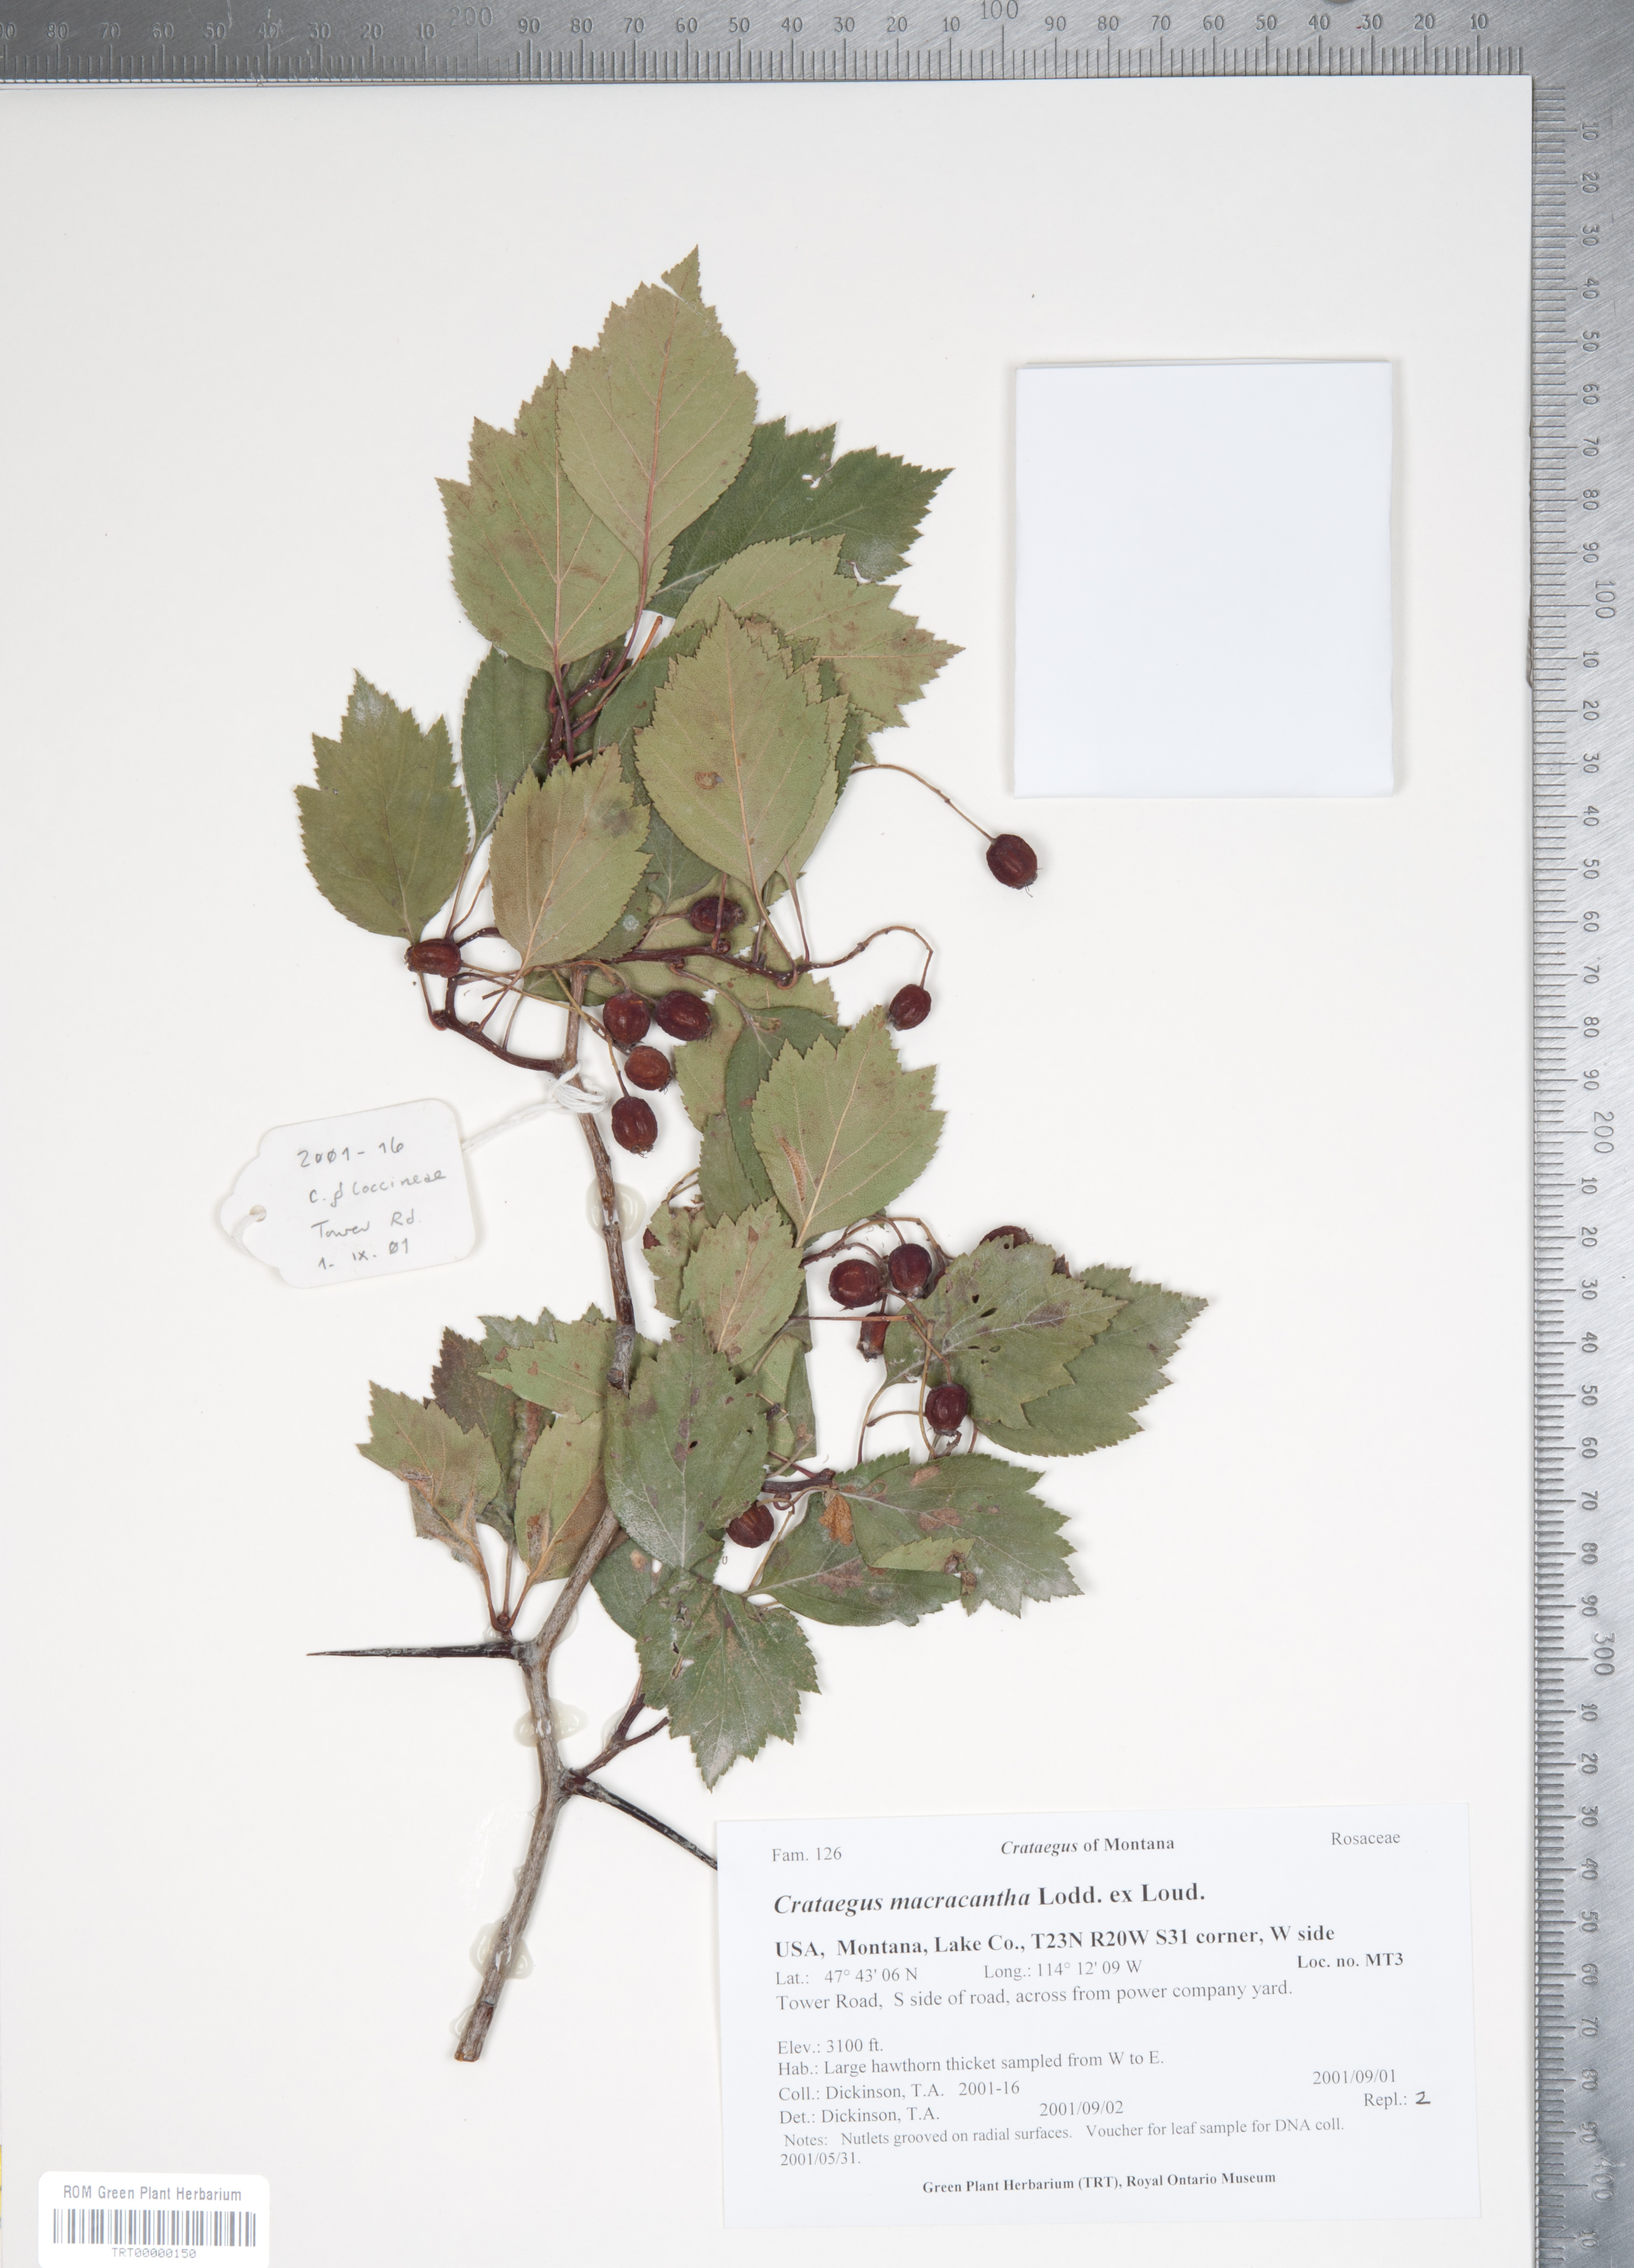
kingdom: Plantae
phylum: Tracheophyta
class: Magnoliopsida
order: Rosales
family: Rosaceae
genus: Crataegus
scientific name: Crataegus macracantha
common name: Large-thorn hawthorn
